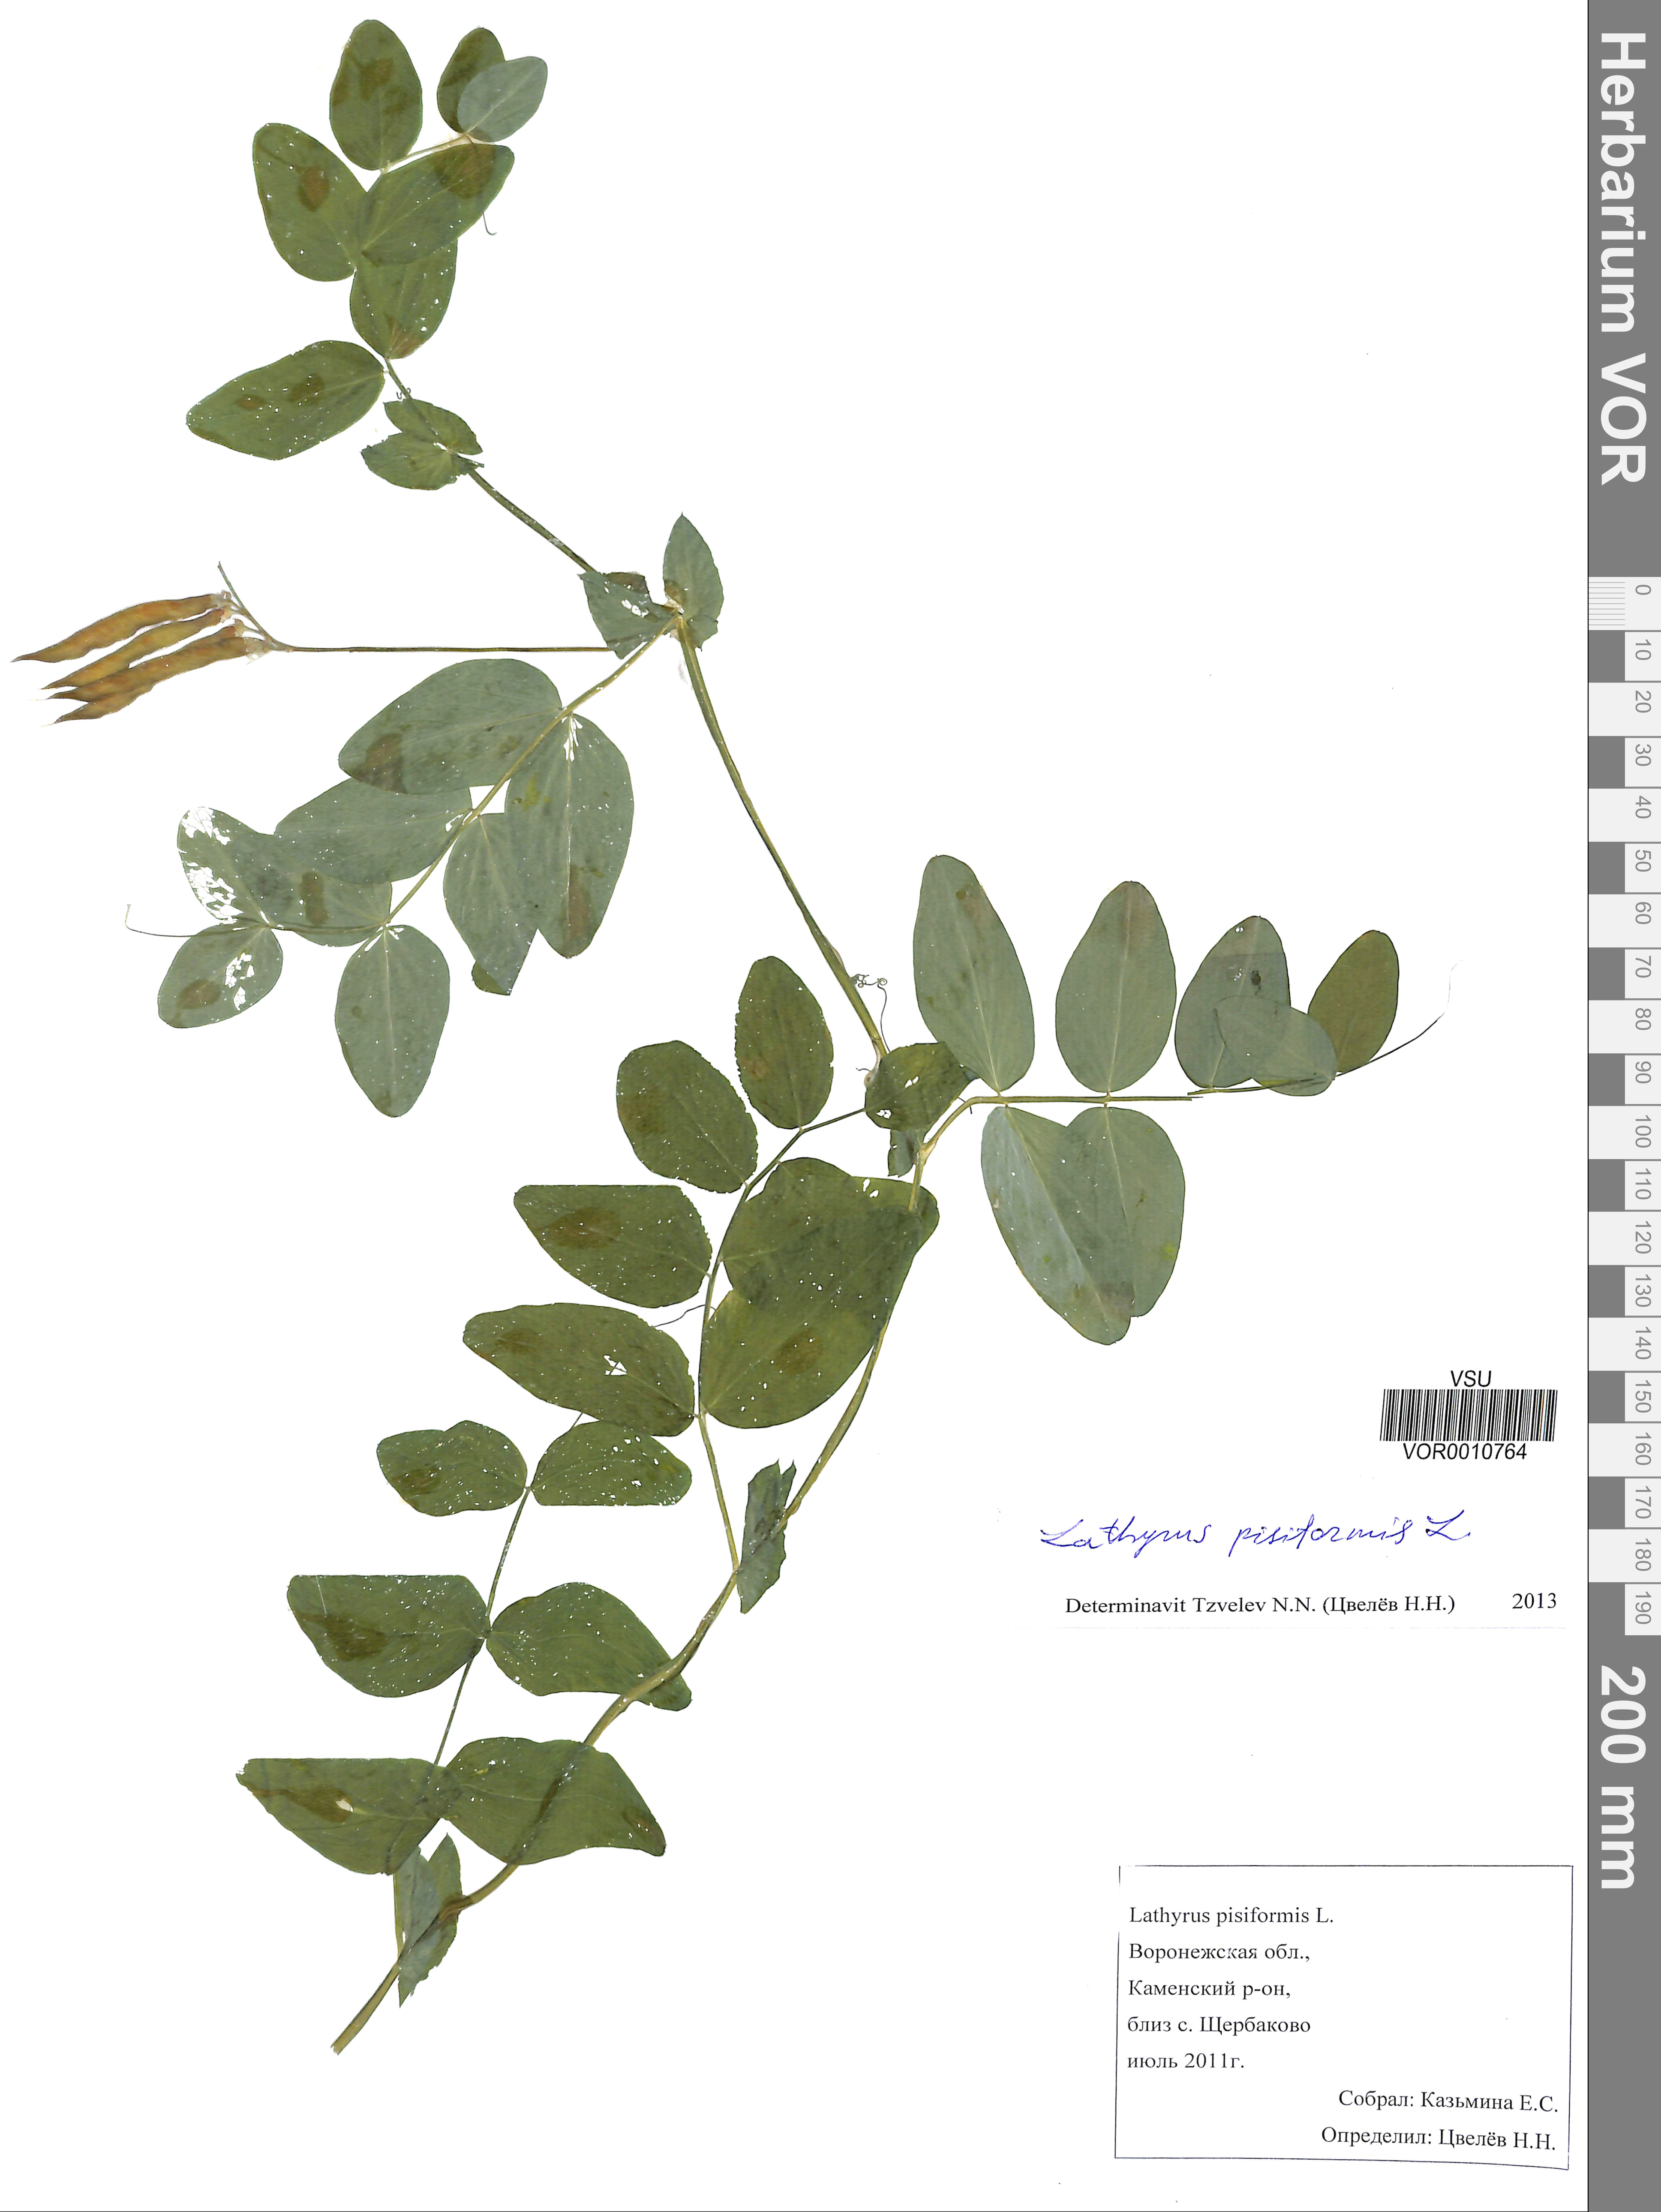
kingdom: Plantae
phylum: Tracheophyta
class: Magnoliopsida
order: Fabales
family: Fabaceae
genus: Lathyrus
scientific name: Lathyrus pisiformis
